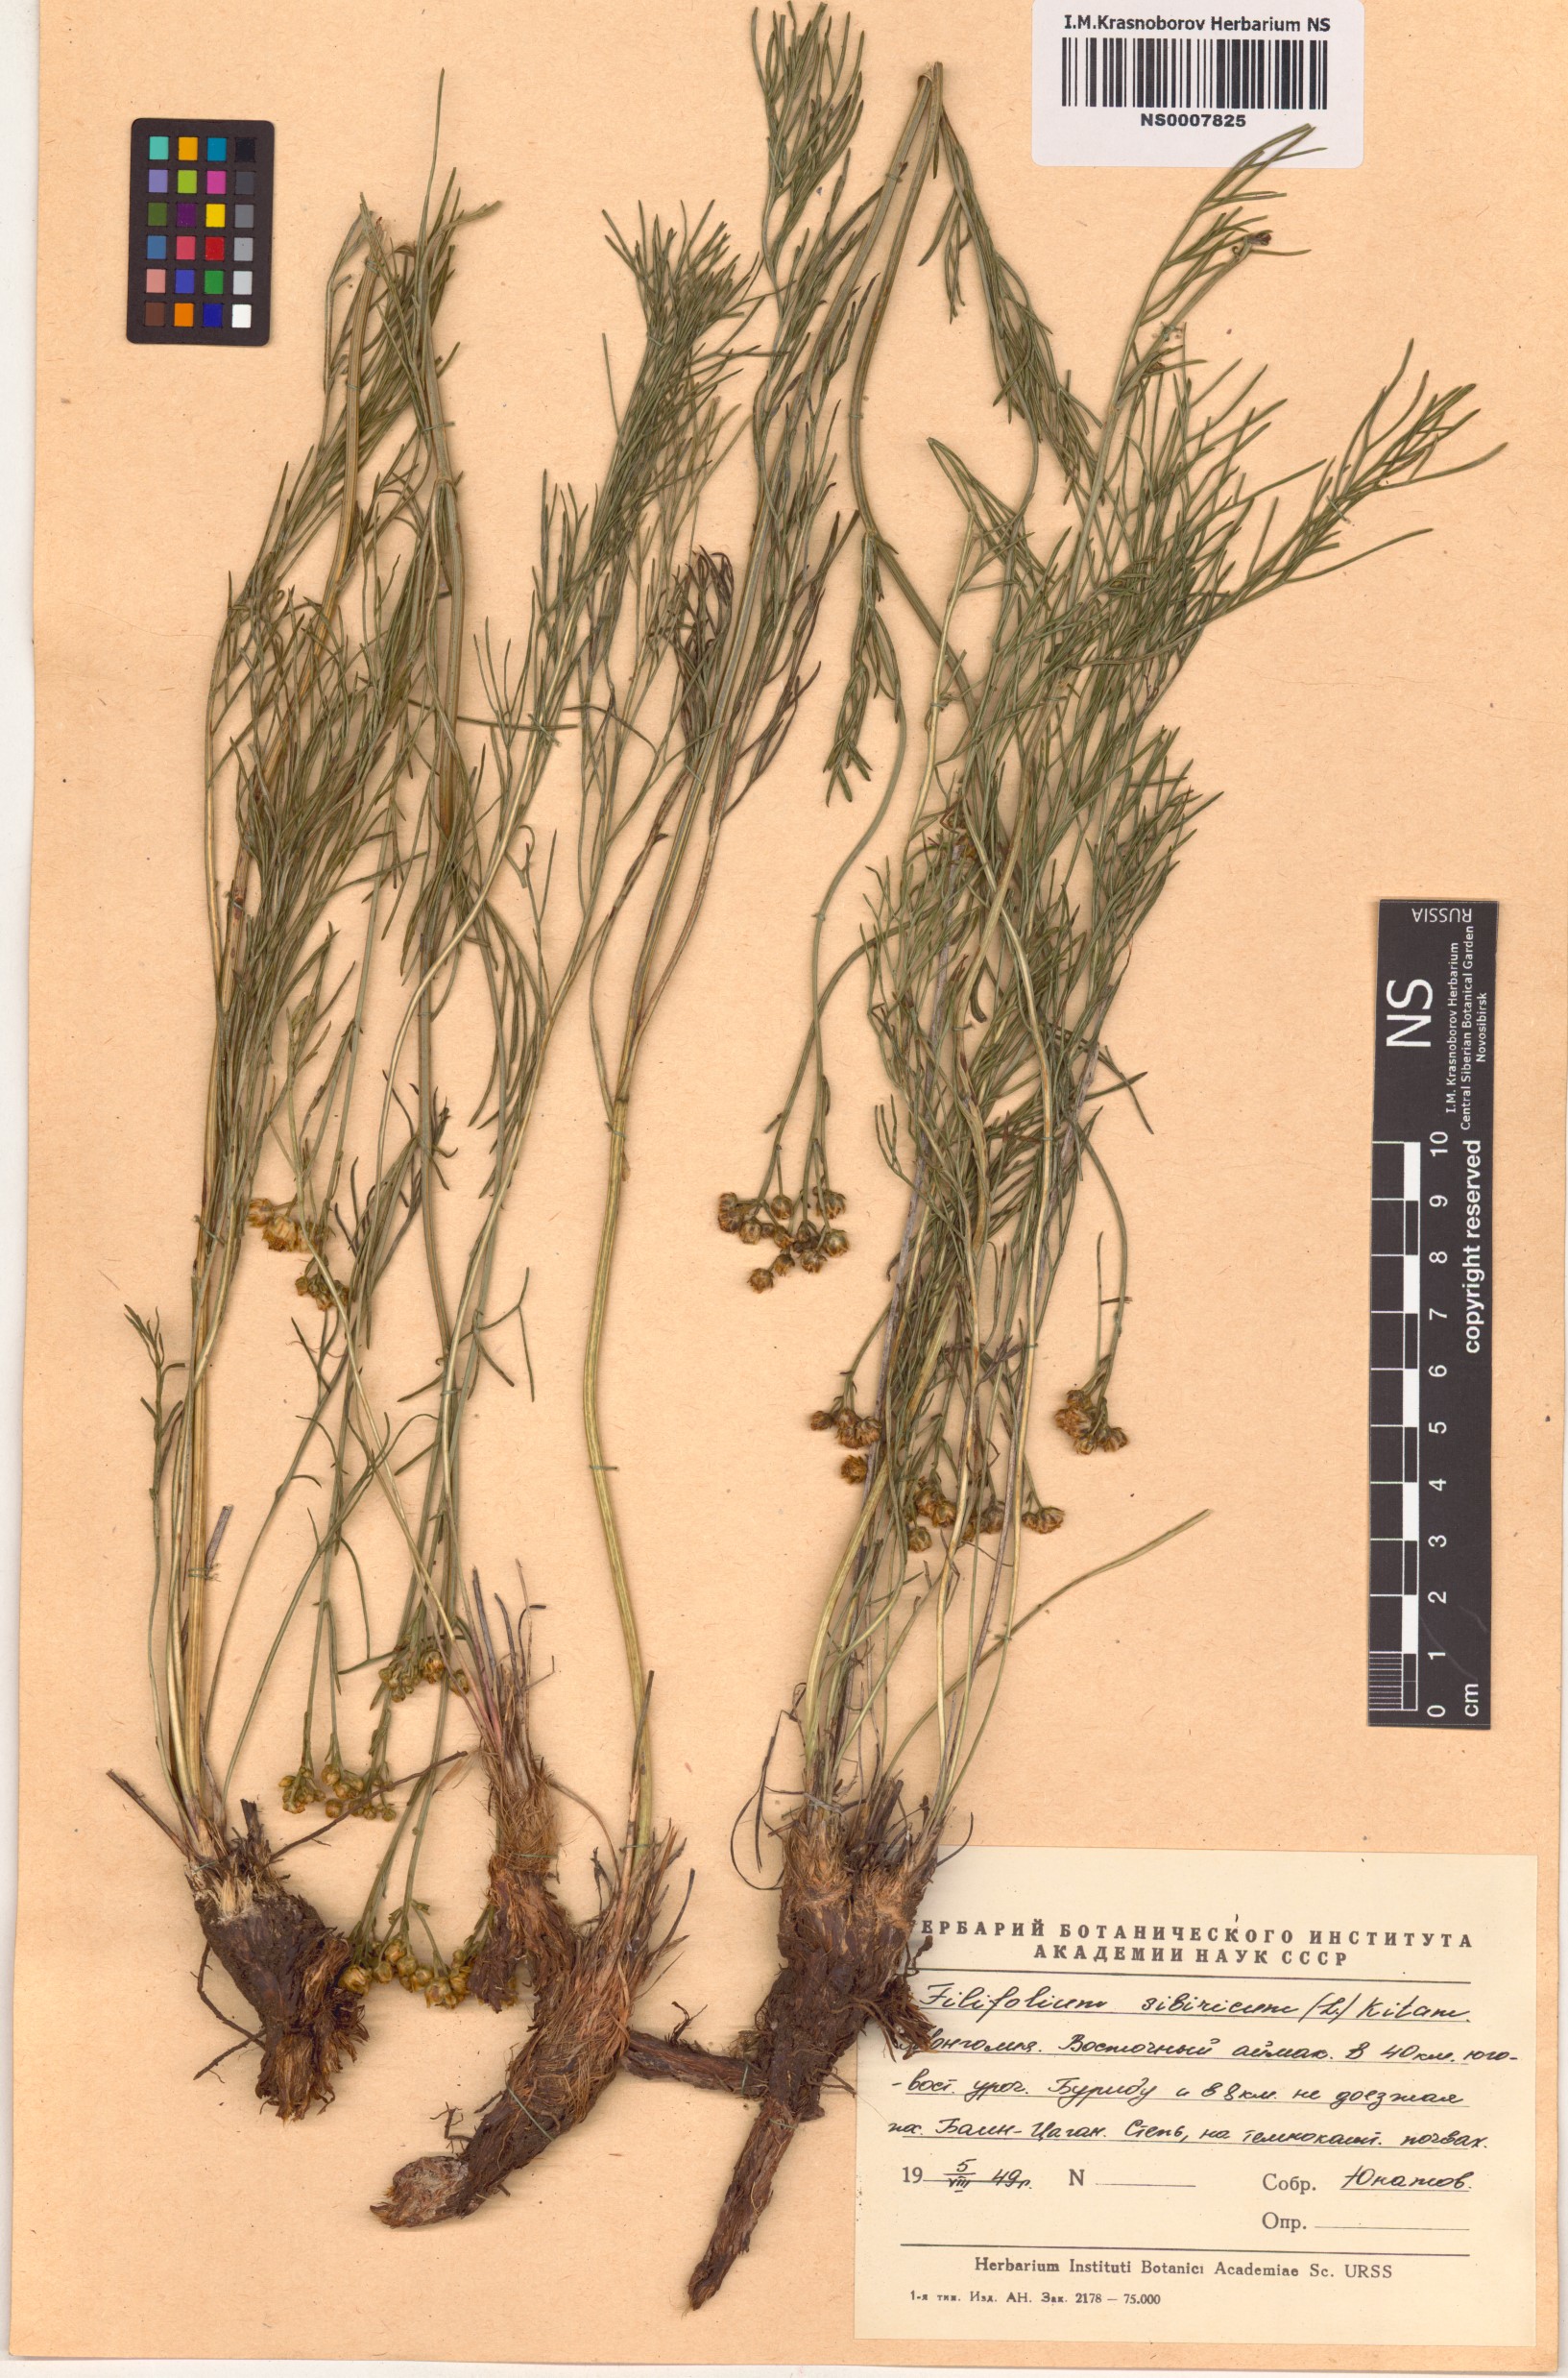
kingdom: Plantae
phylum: Tracheophyta
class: Magnoliopsida
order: Asterales
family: Asteraceae
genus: Filifolium
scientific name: Filifolium sibiricum
